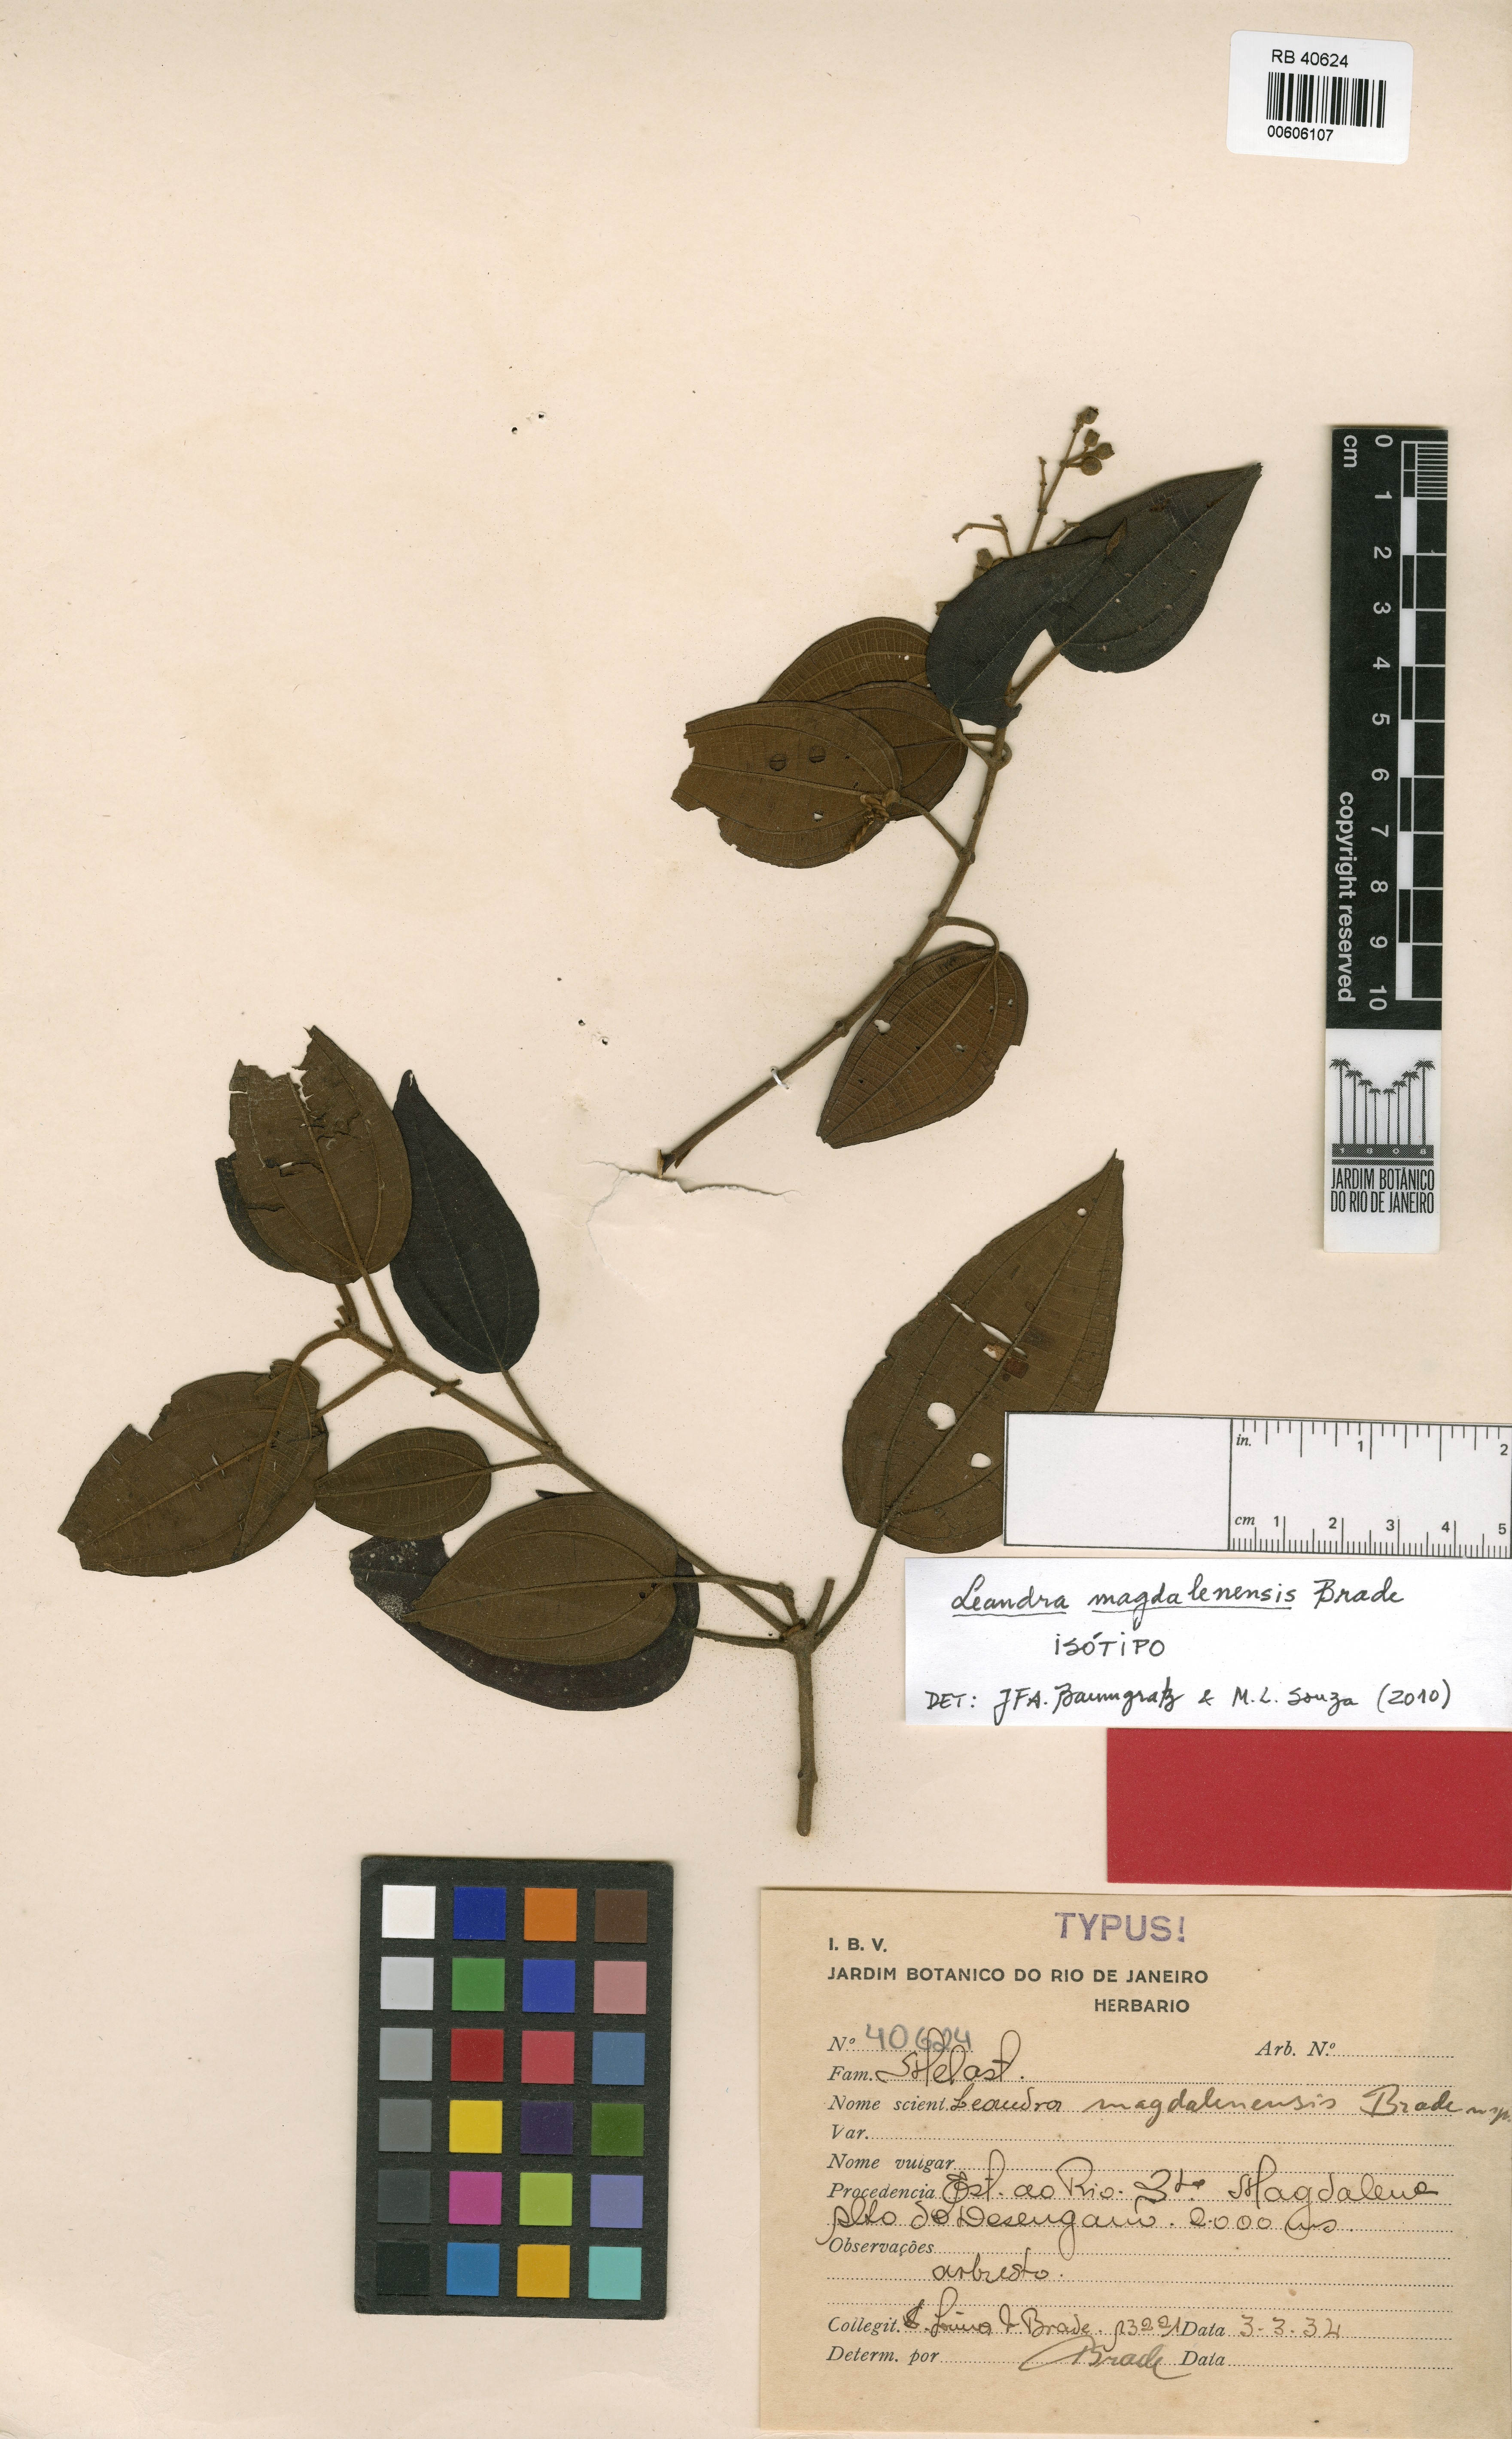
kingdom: Plantae
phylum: Tracheophyta
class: Magnoliopsida
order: Myrtales
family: Melastomataceae
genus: Miconia
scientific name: Miconia magdalenensis
